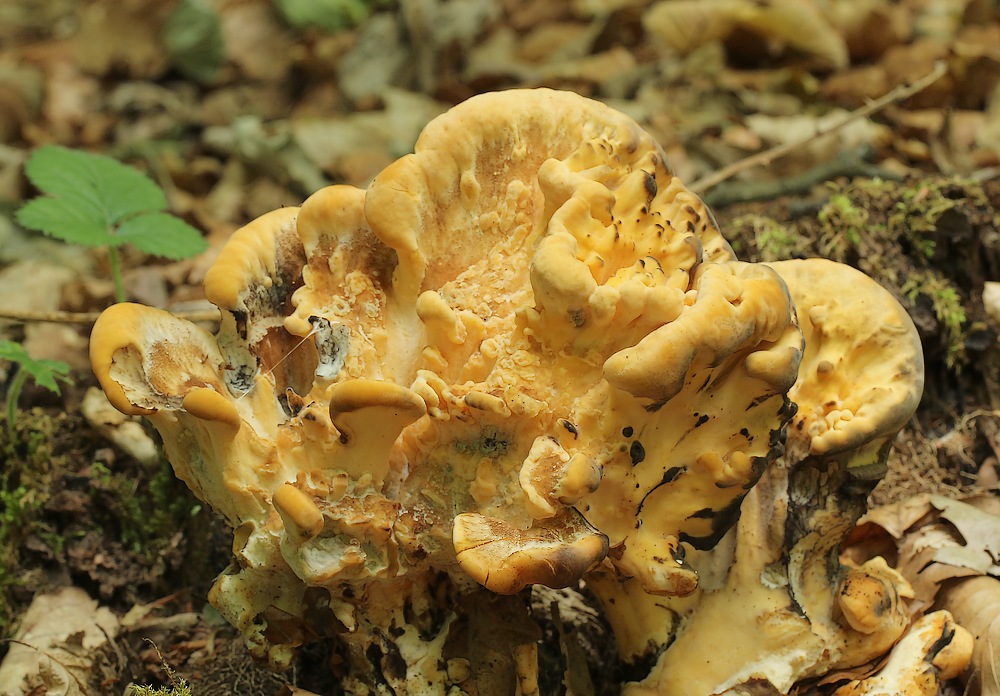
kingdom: Fungi
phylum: Basidiomycota
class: Agaricomycetes
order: Polyporales
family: Meripilaceae
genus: Meripilus
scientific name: Meripilus giganteus
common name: kæmpeporesvamp
